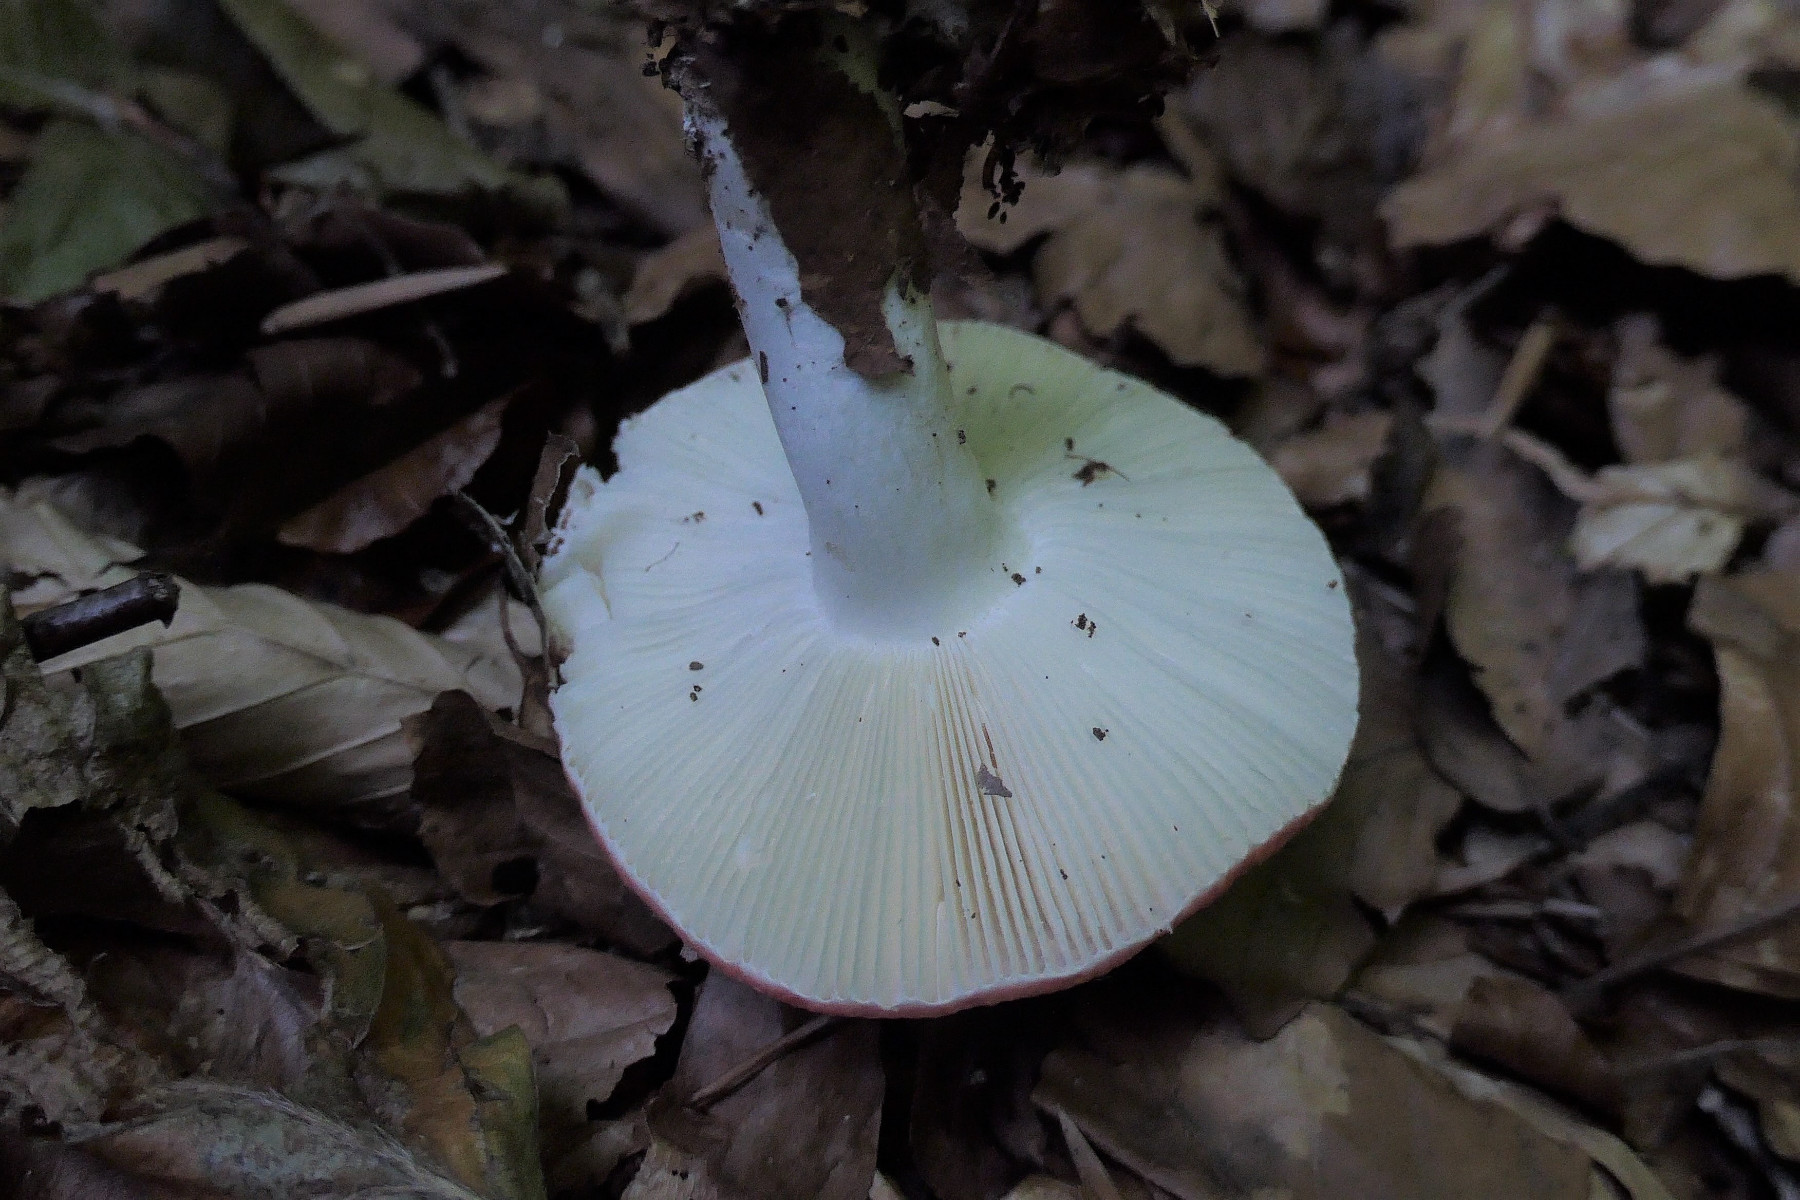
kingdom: Fungi
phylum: Basidiomycota
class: Agaricomycetes
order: Russulales
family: Russulaceae
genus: Russula
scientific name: Russula
